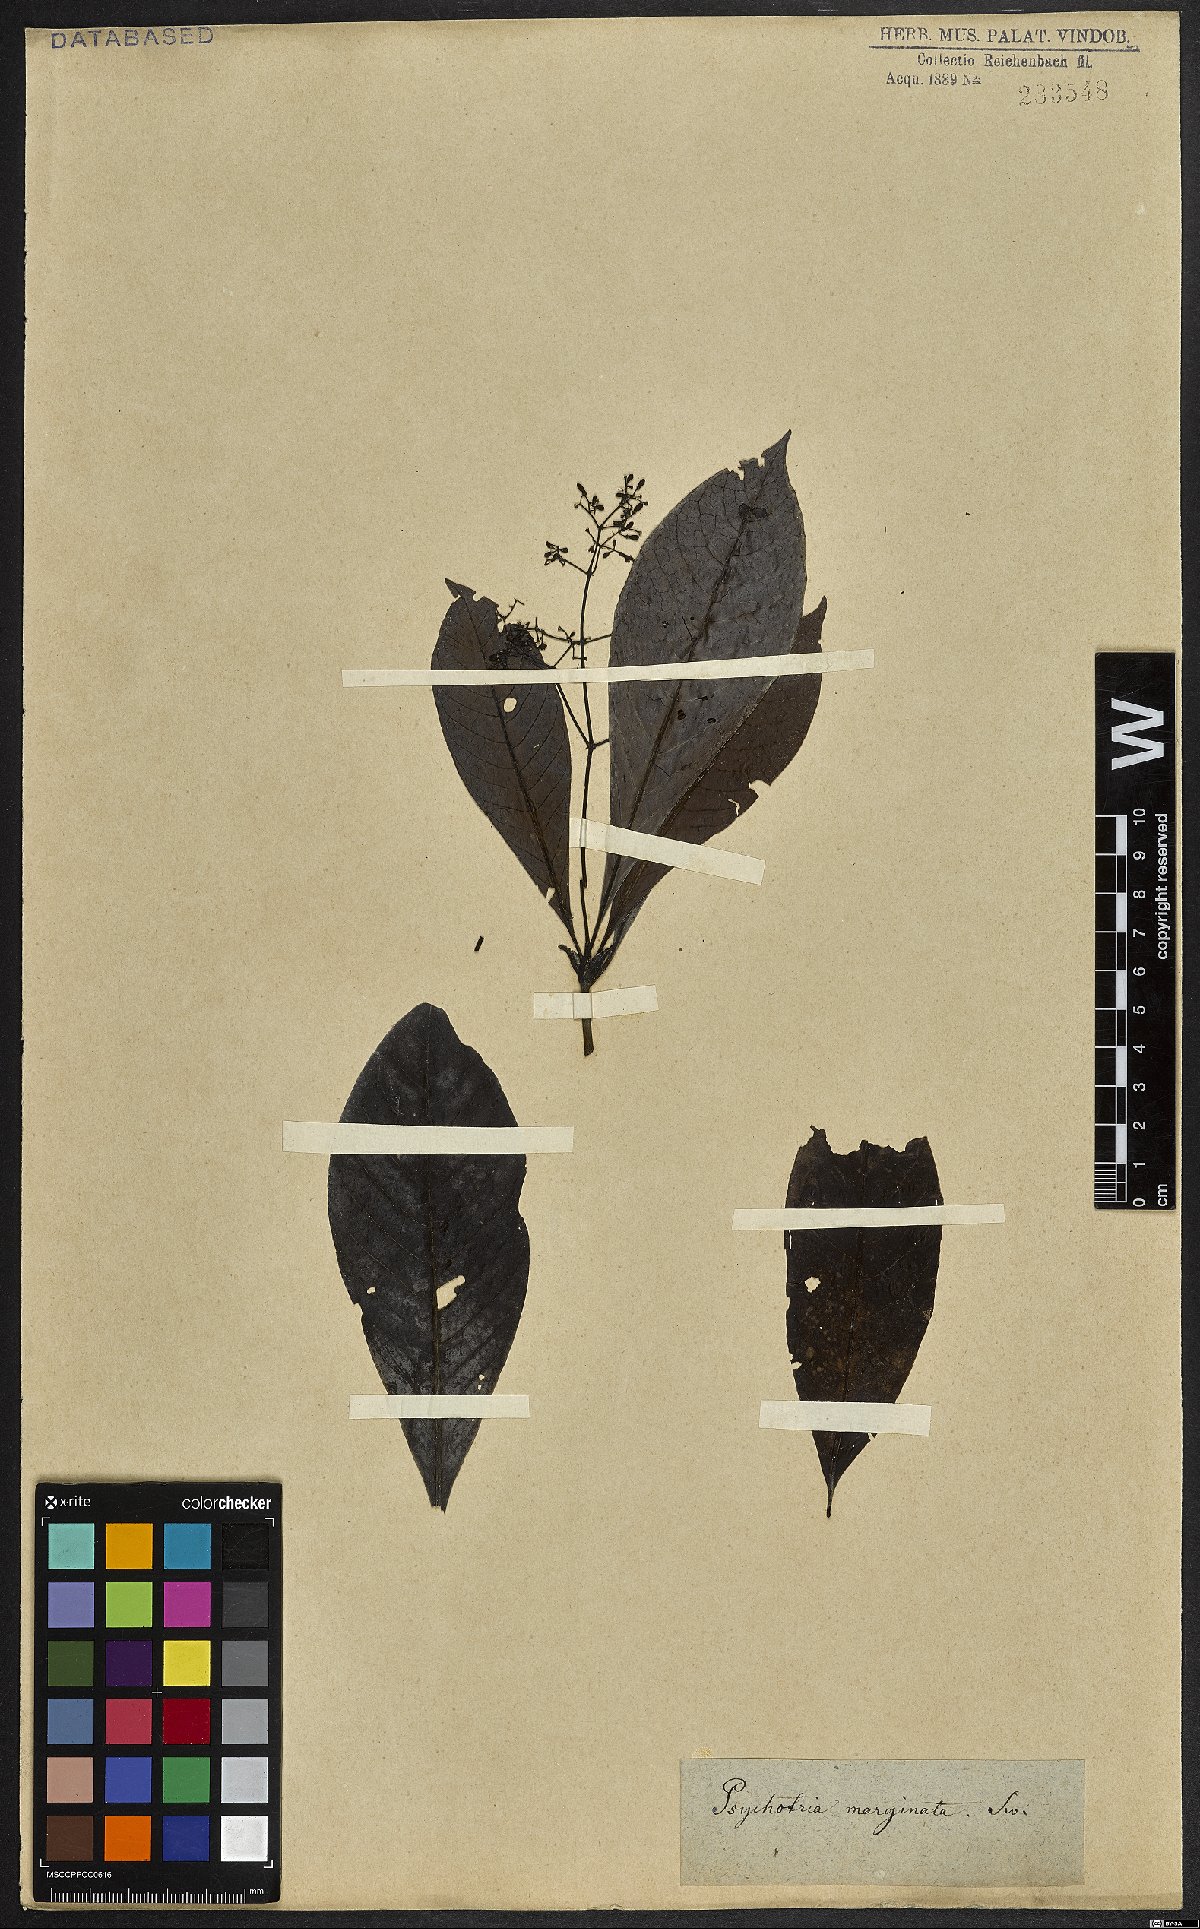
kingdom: Plantae
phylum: Tracheophyta
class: Magnoliopsida
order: Gentianales
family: Rubiaceae
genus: Psychotria
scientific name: Psychotria marginata
